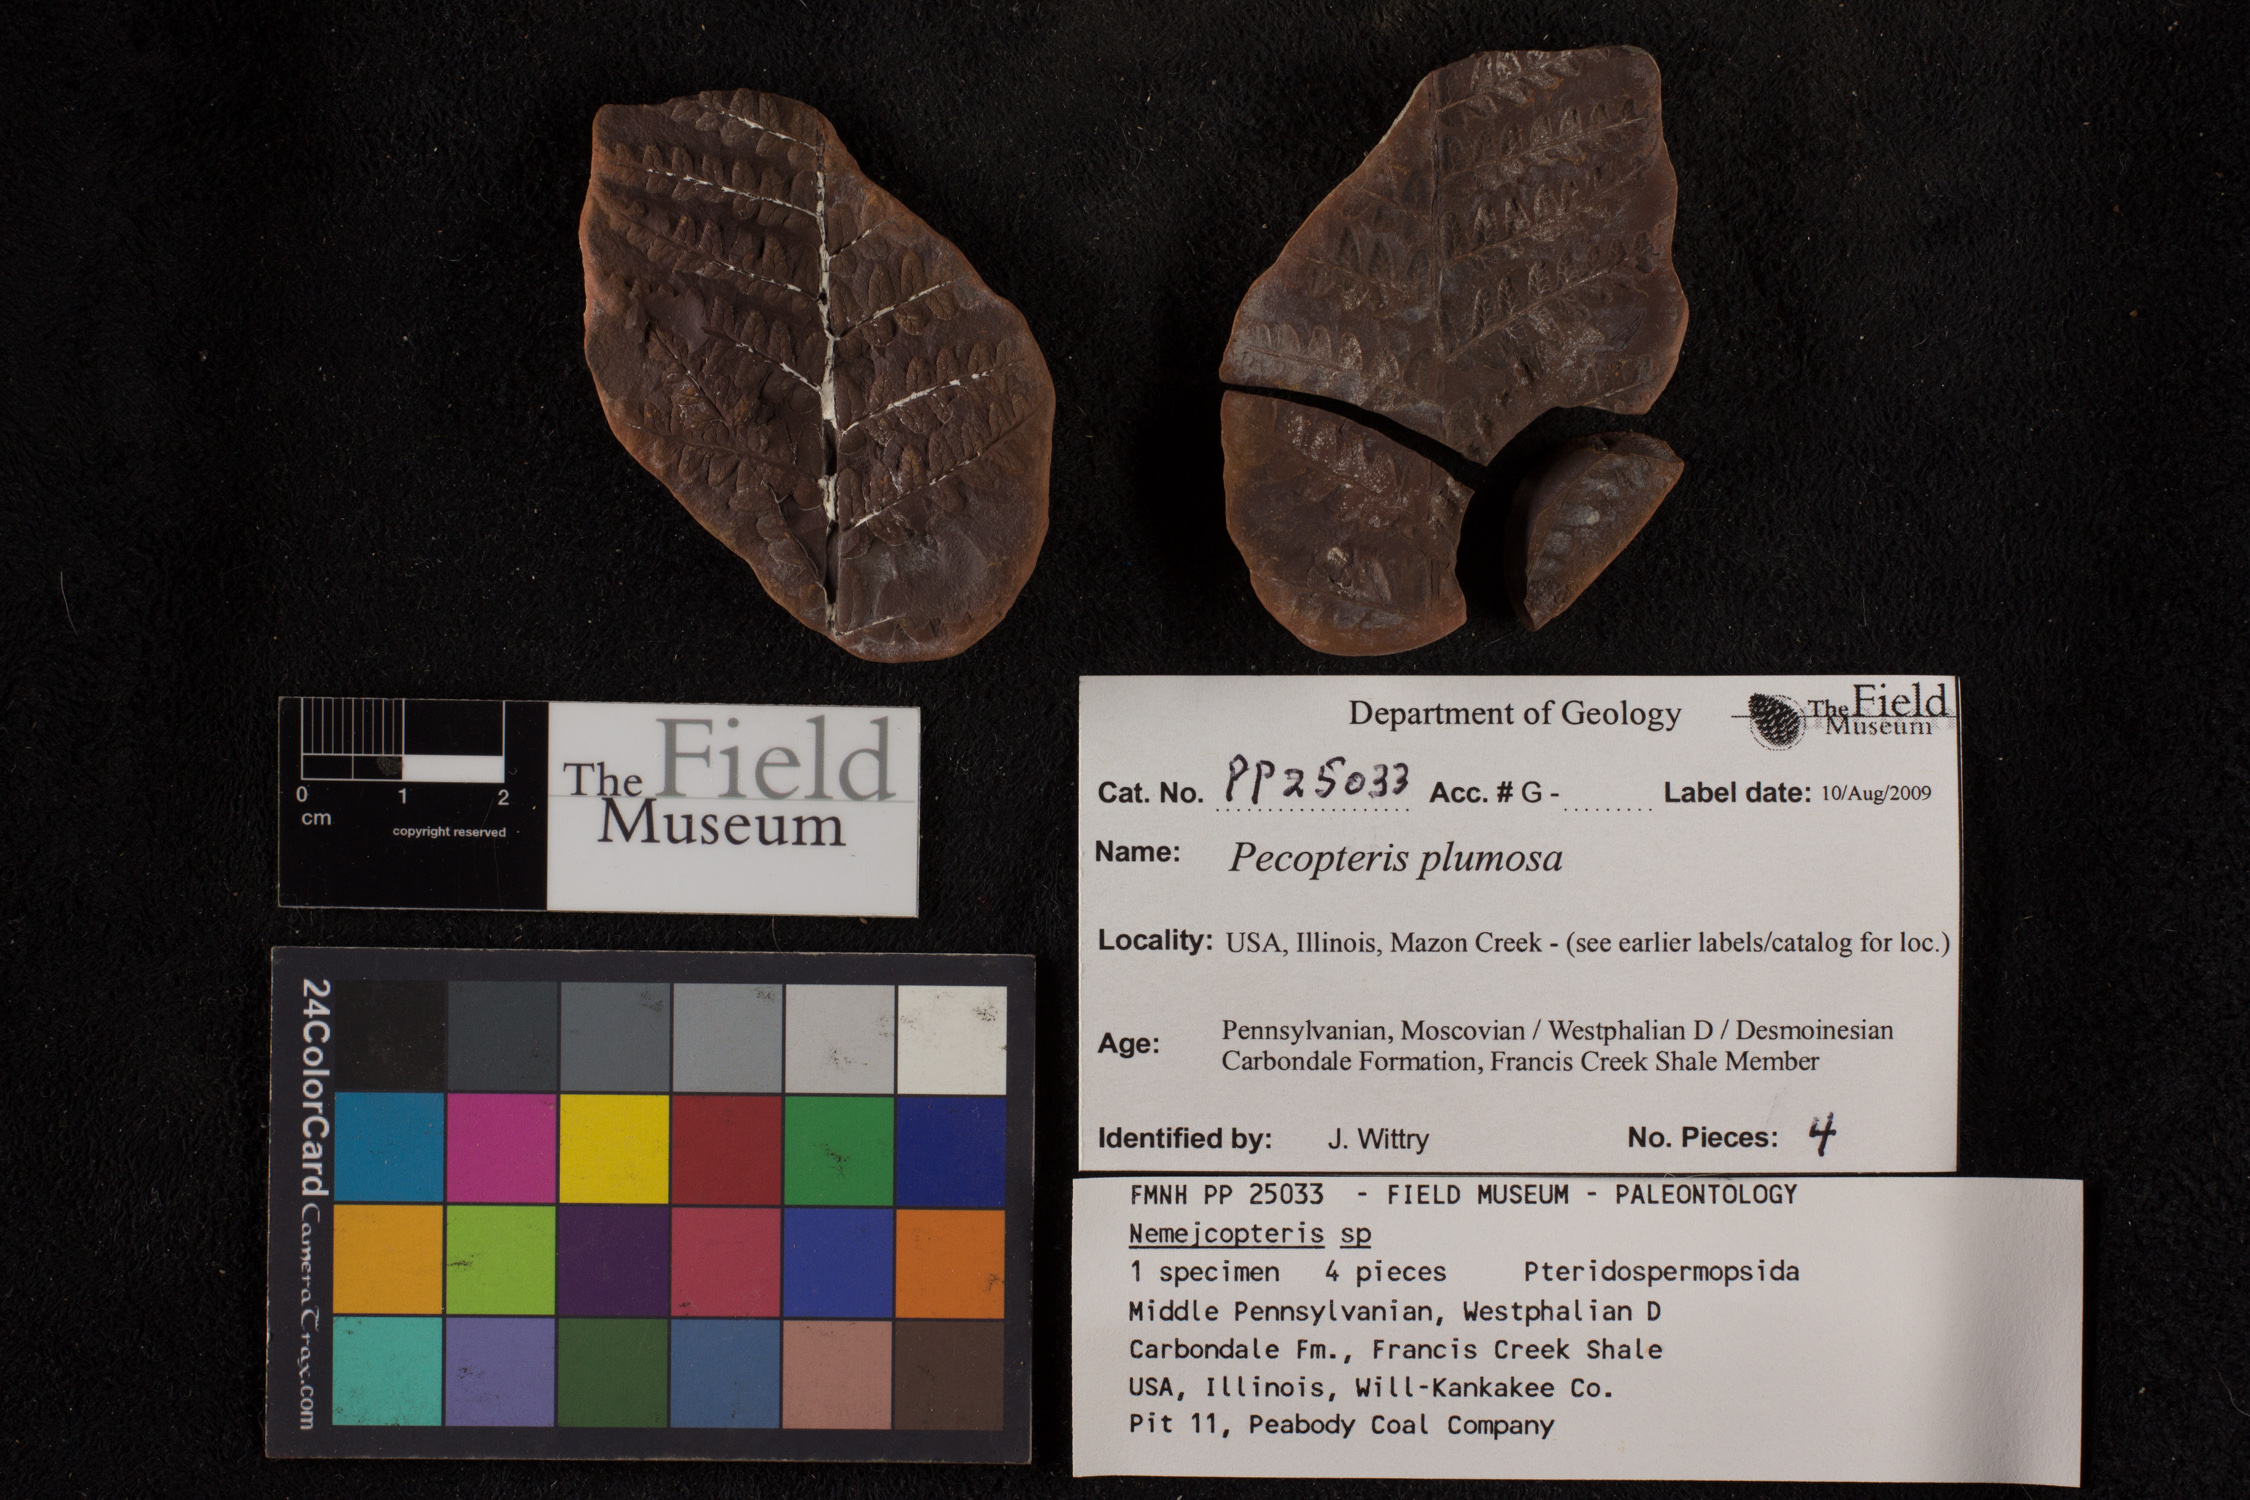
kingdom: Plantae
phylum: Tracheophyta
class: Polypodiopsida
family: Tedeleaceae
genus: Senftenbergia
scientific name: Senftenbergia
